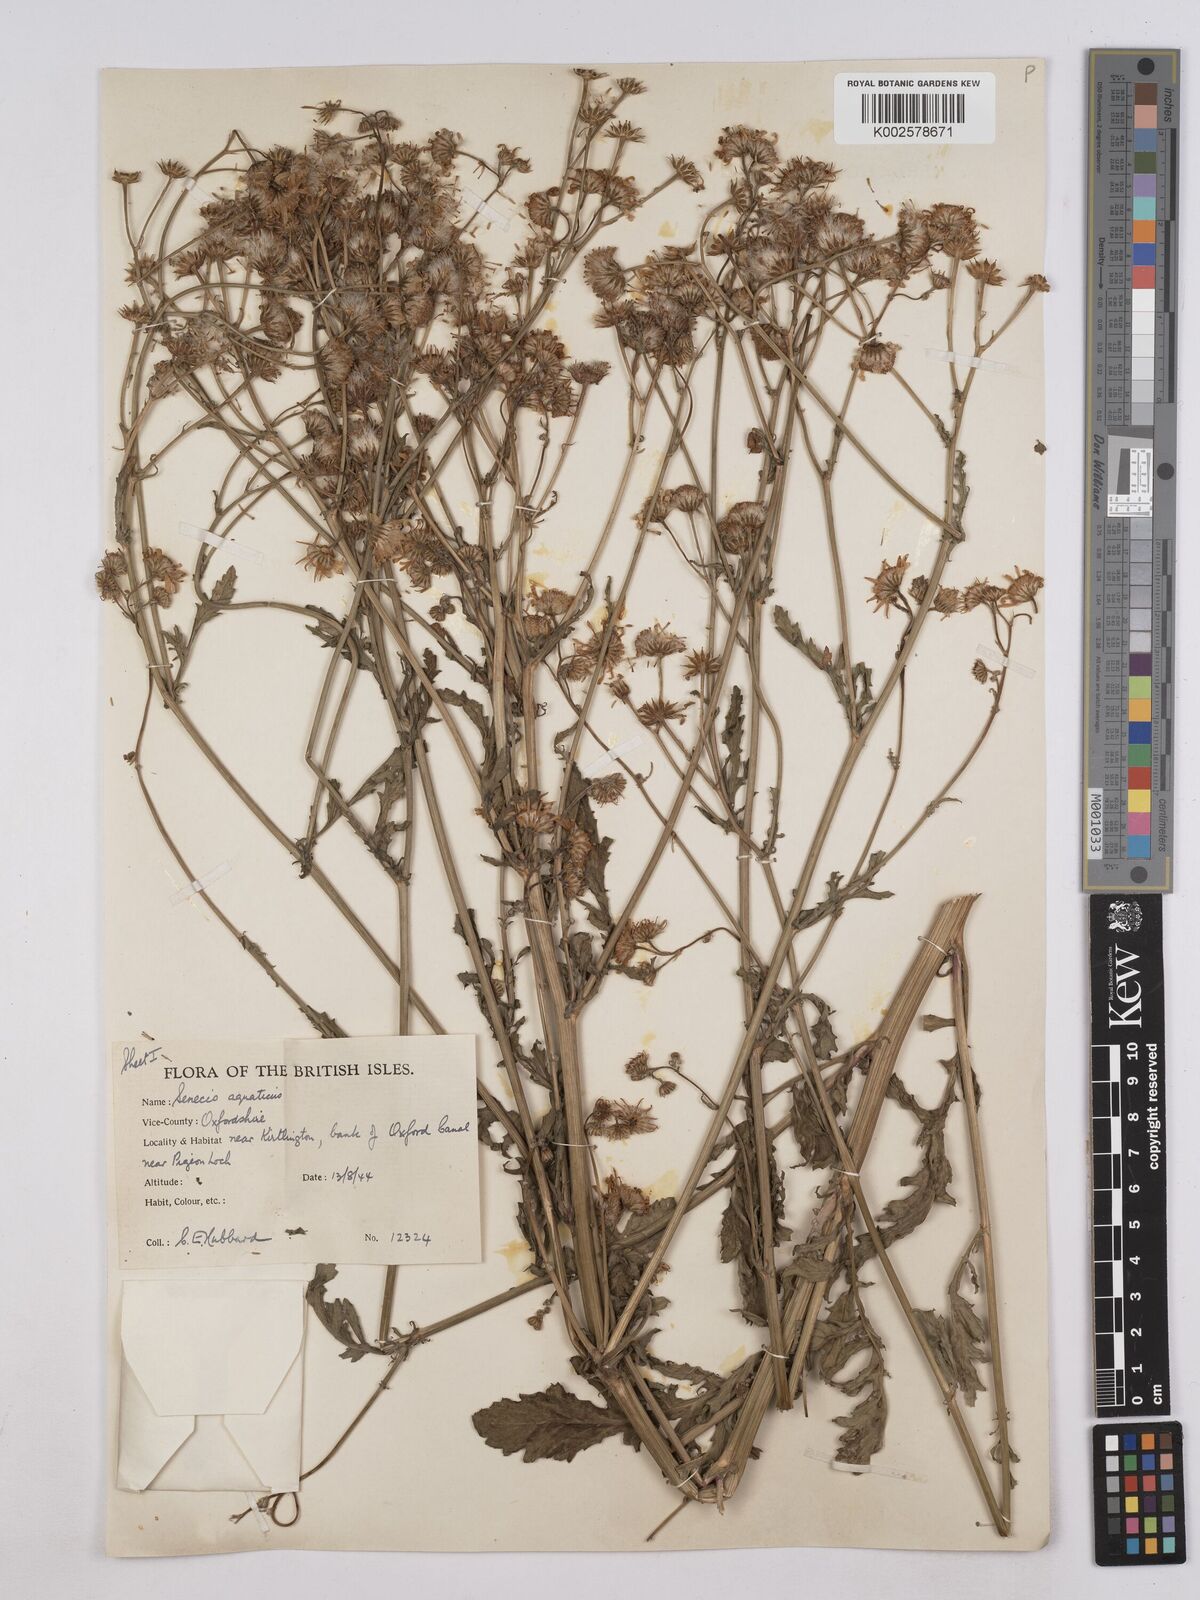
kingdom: Plantae
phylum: Tracheophyta
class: Magnoliopsida
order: Asterales
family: Asteraceae
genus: Jacobaea
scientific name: Jacobaea aquatica
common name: Water ragwort
